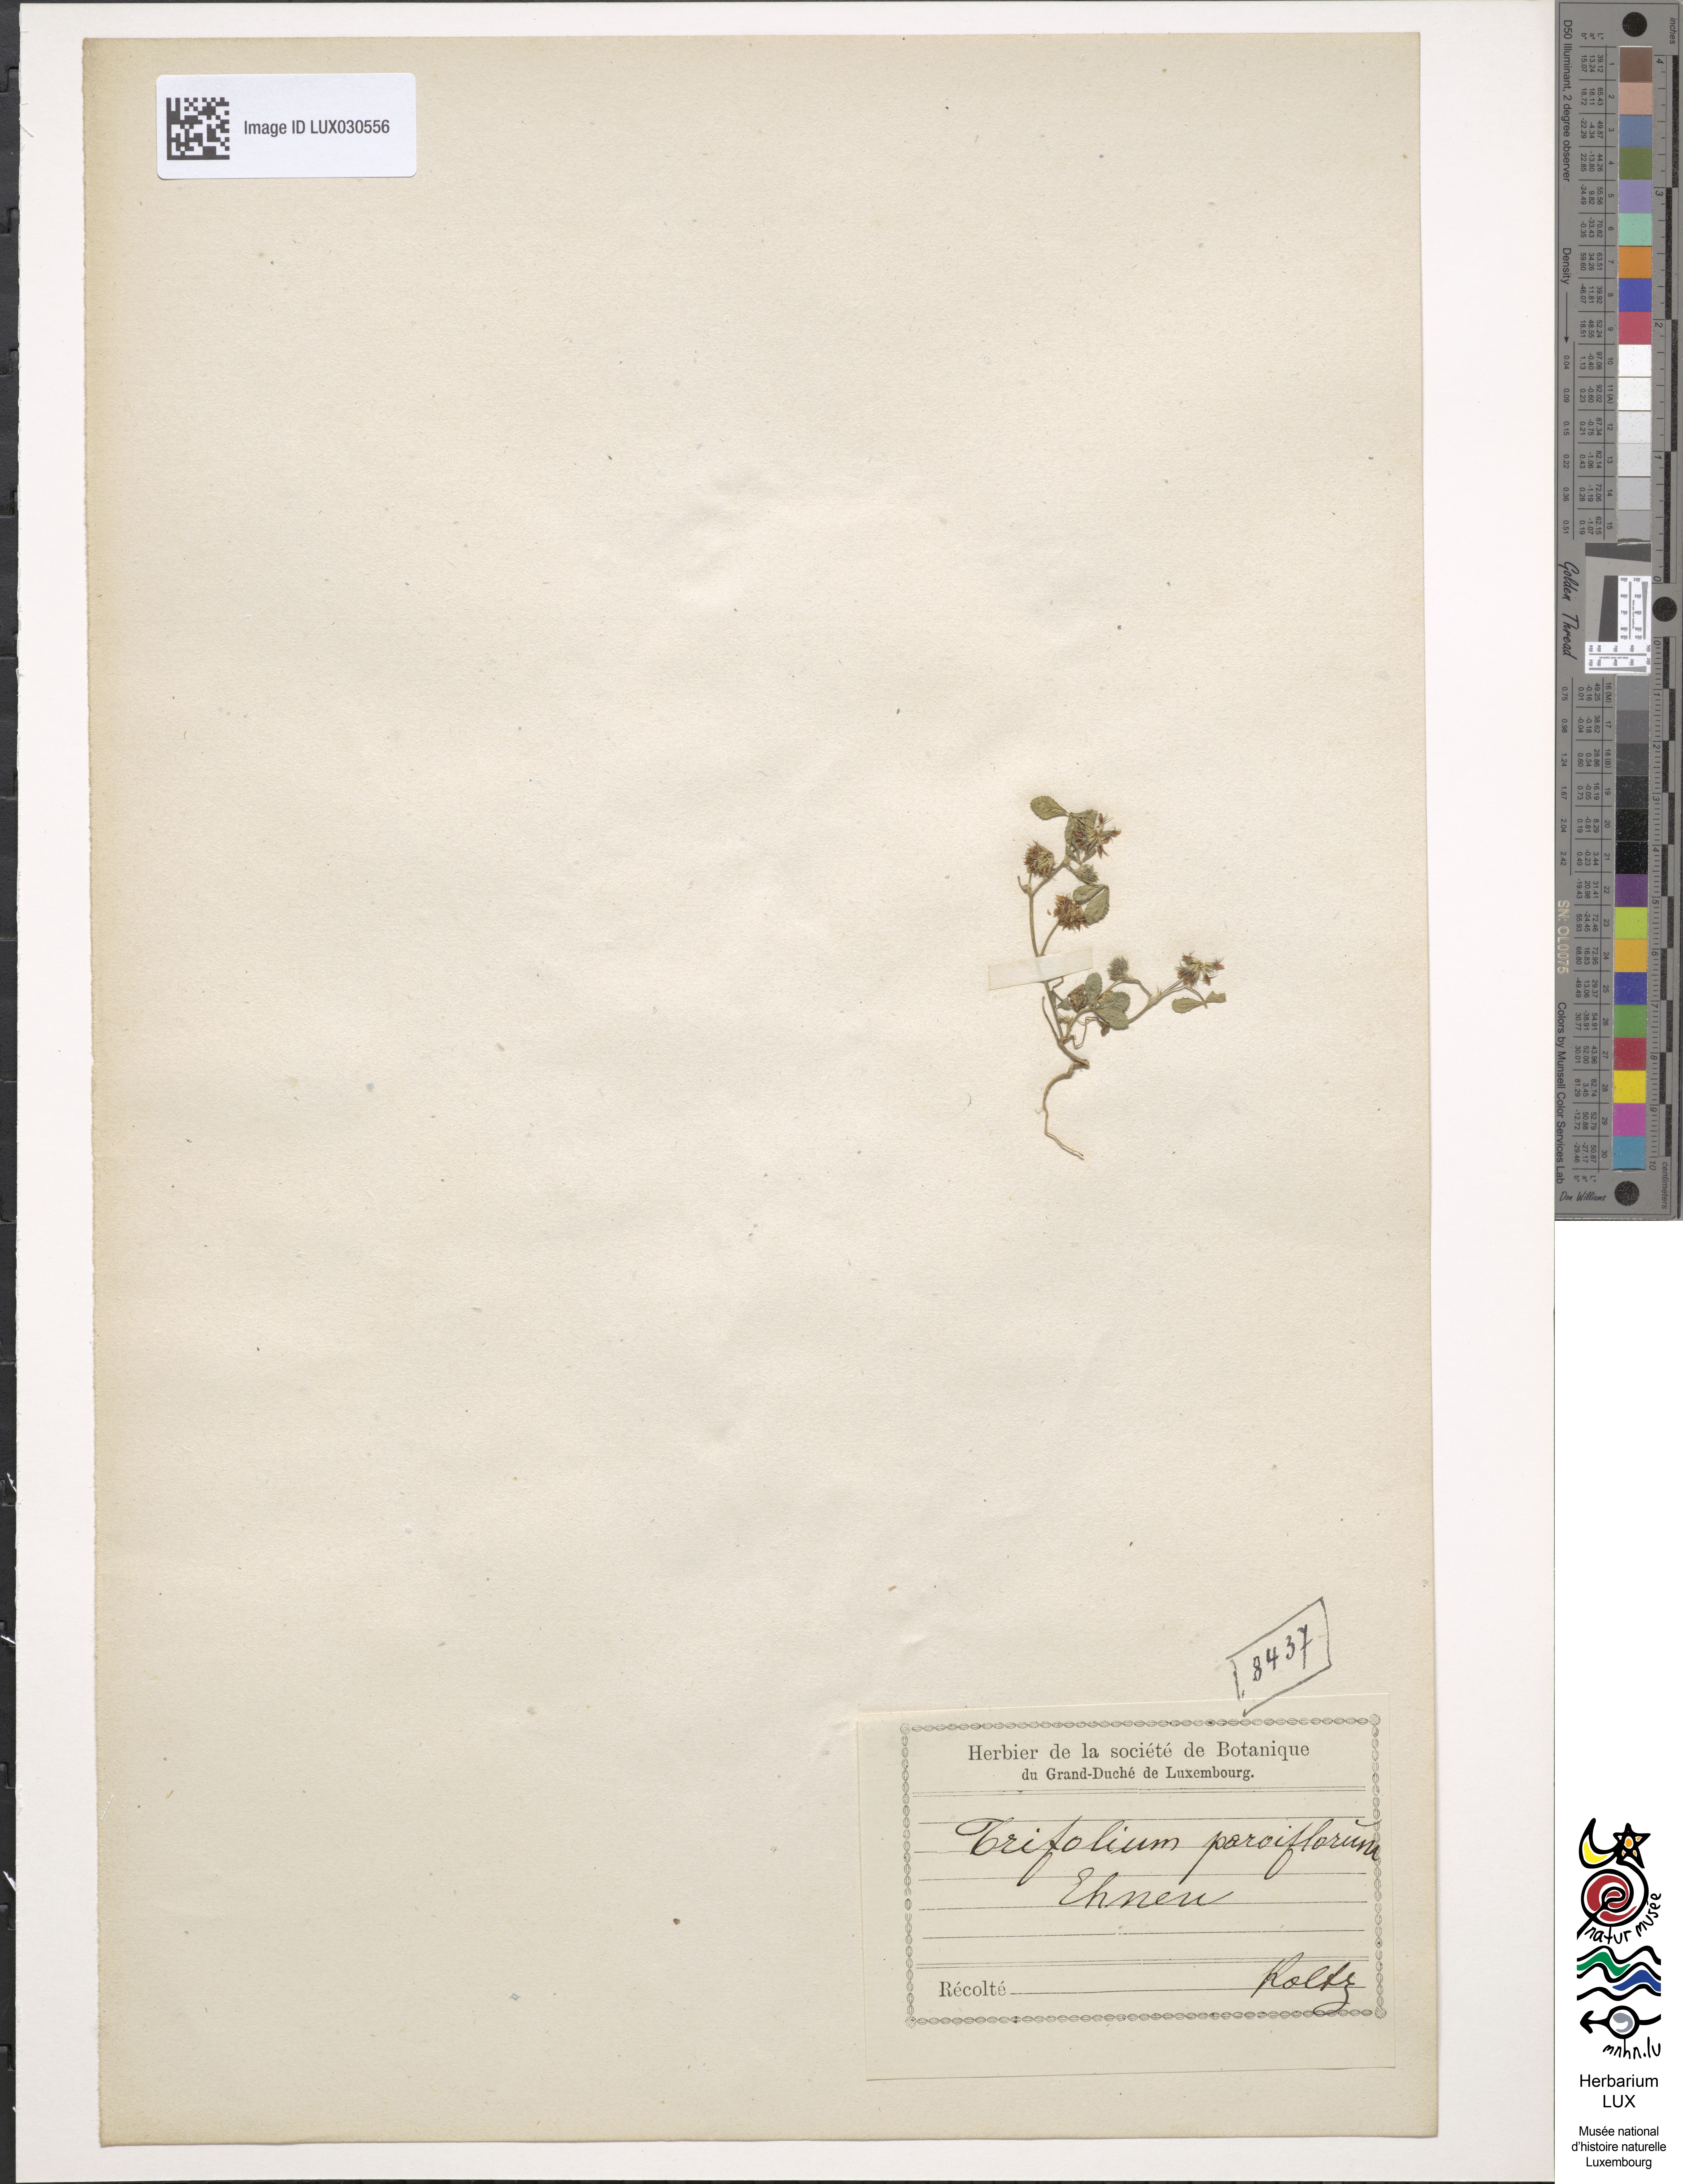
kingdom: Plantae
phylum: Tracheophyta
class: Magnoliopsida
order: Fabales
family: Fabaceae
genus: Trifolium
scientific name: Trifolium retusum
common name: Teasel clover
